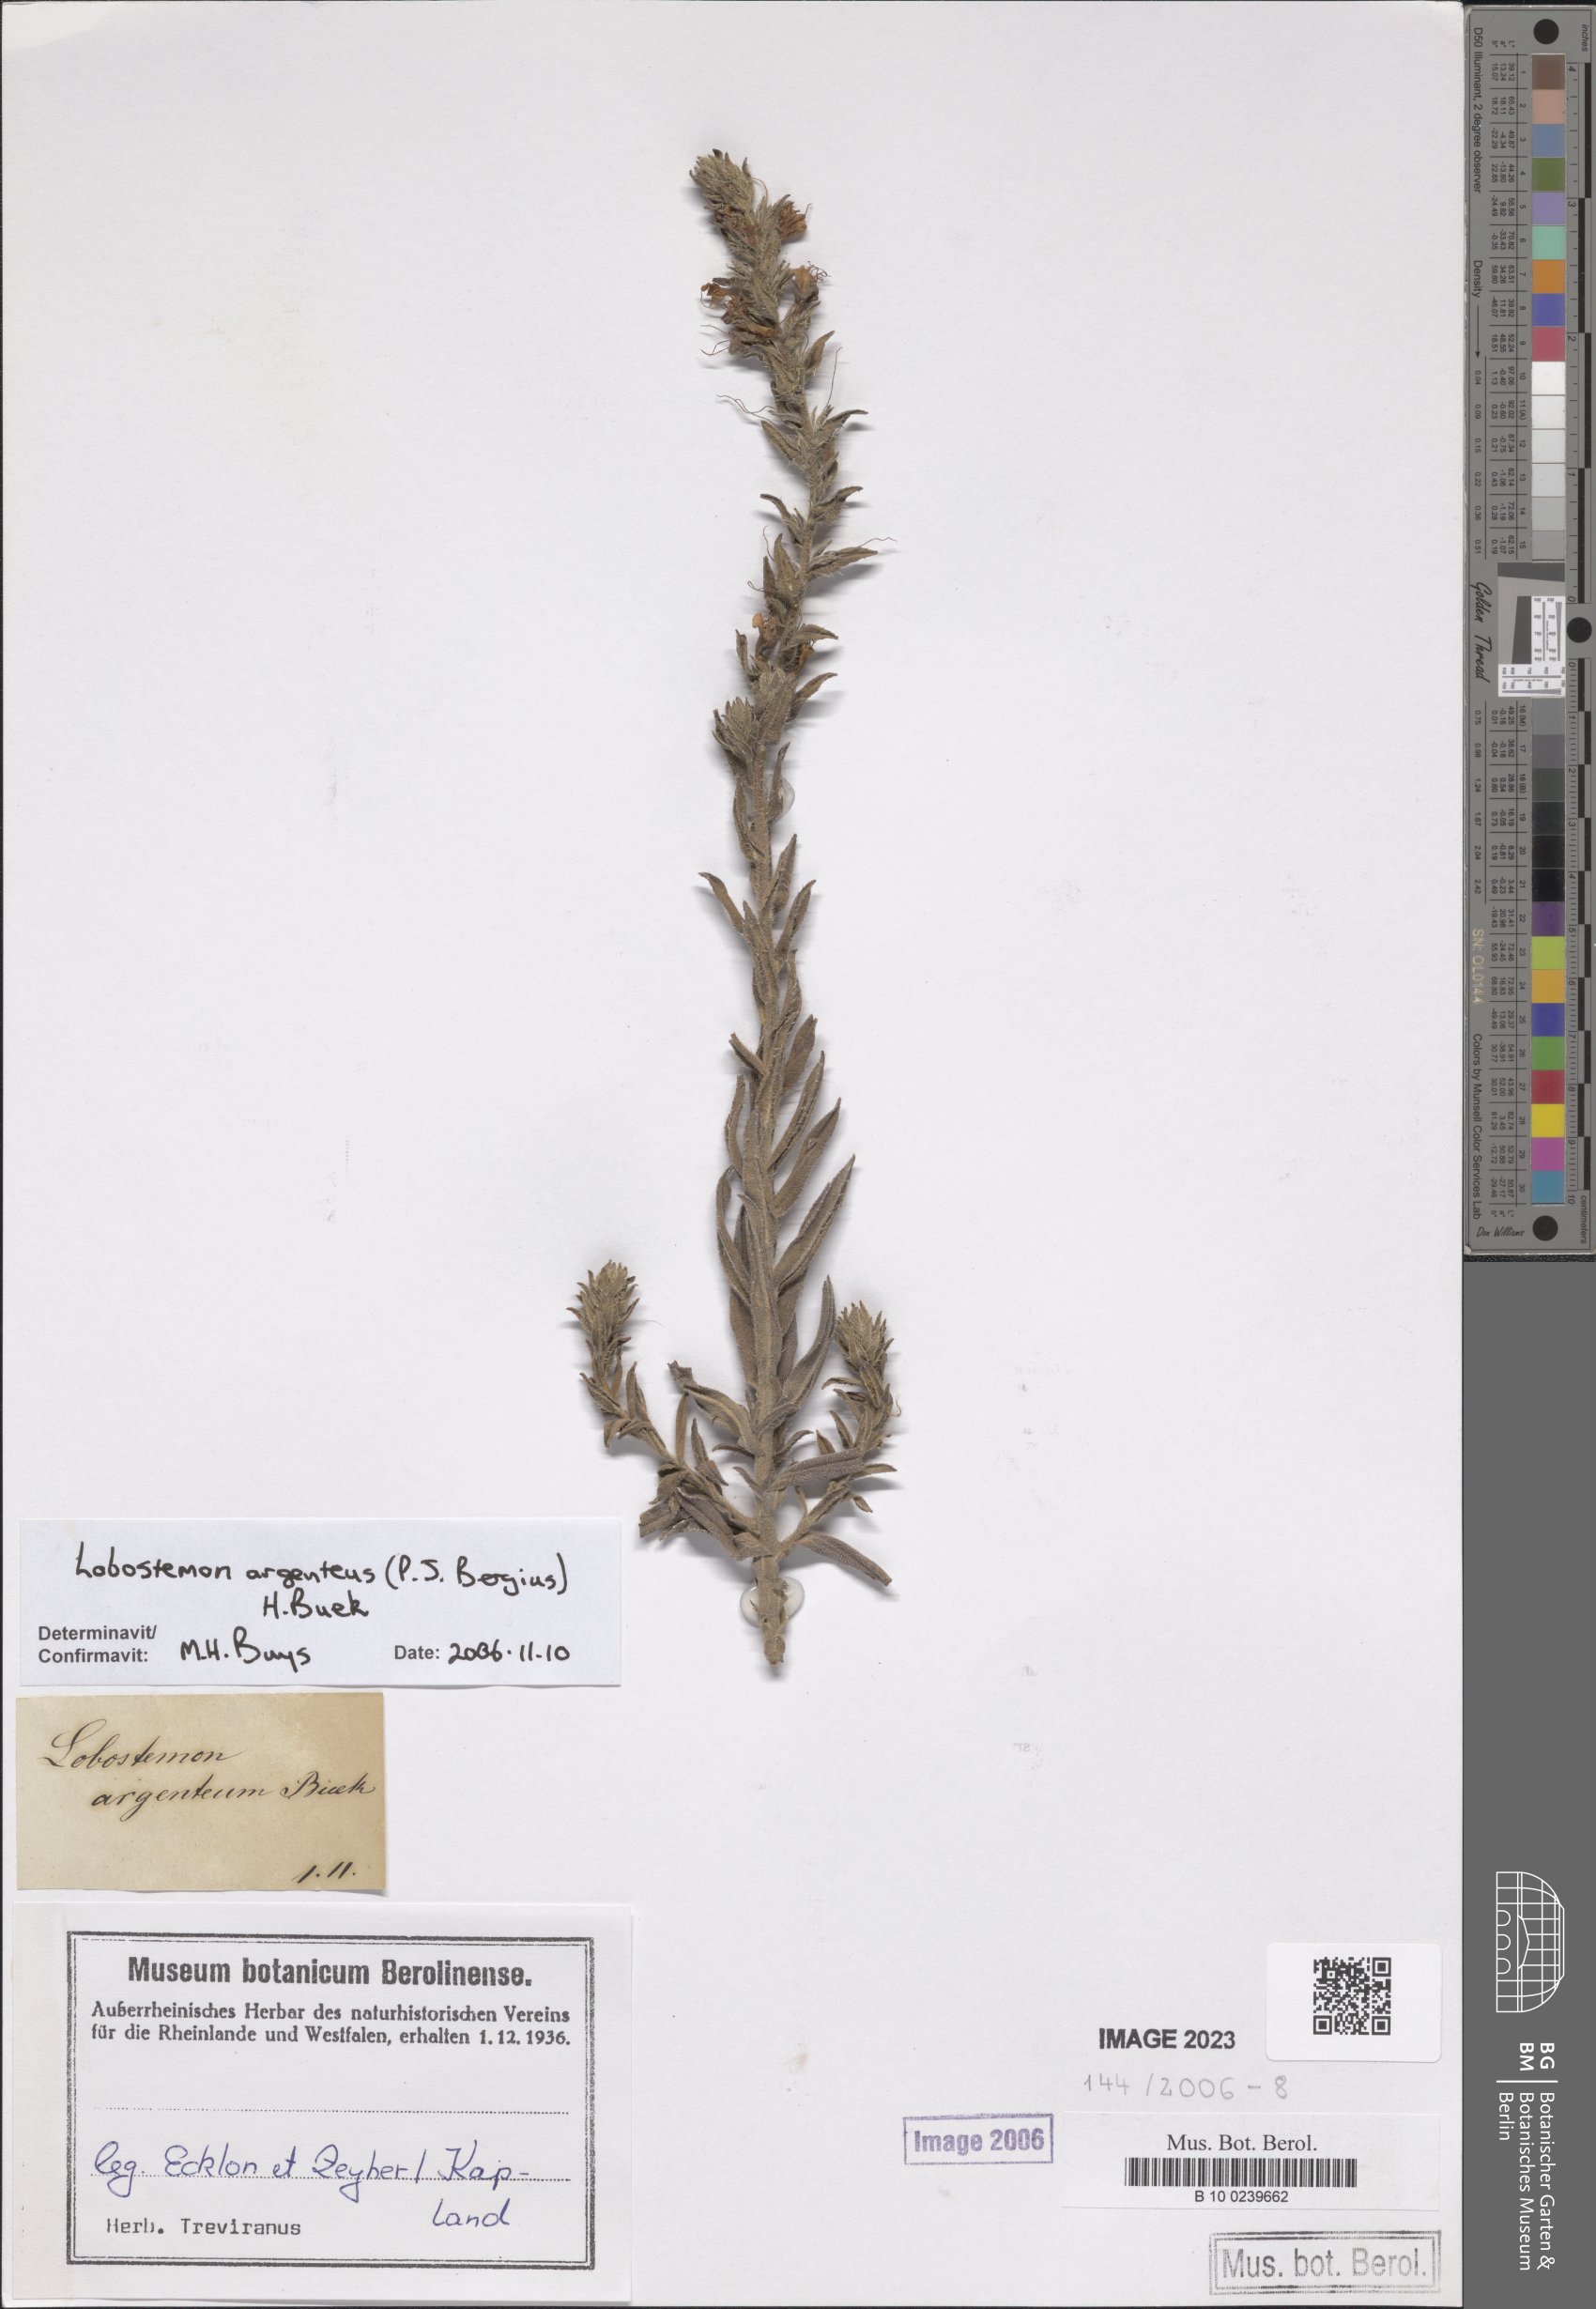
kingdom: Plantae
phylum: Tracheophyta
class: Magnoliopsida
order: Boraginales
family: Boraginaceae
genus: Lobostemon
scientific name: Lobostemon argenteus
